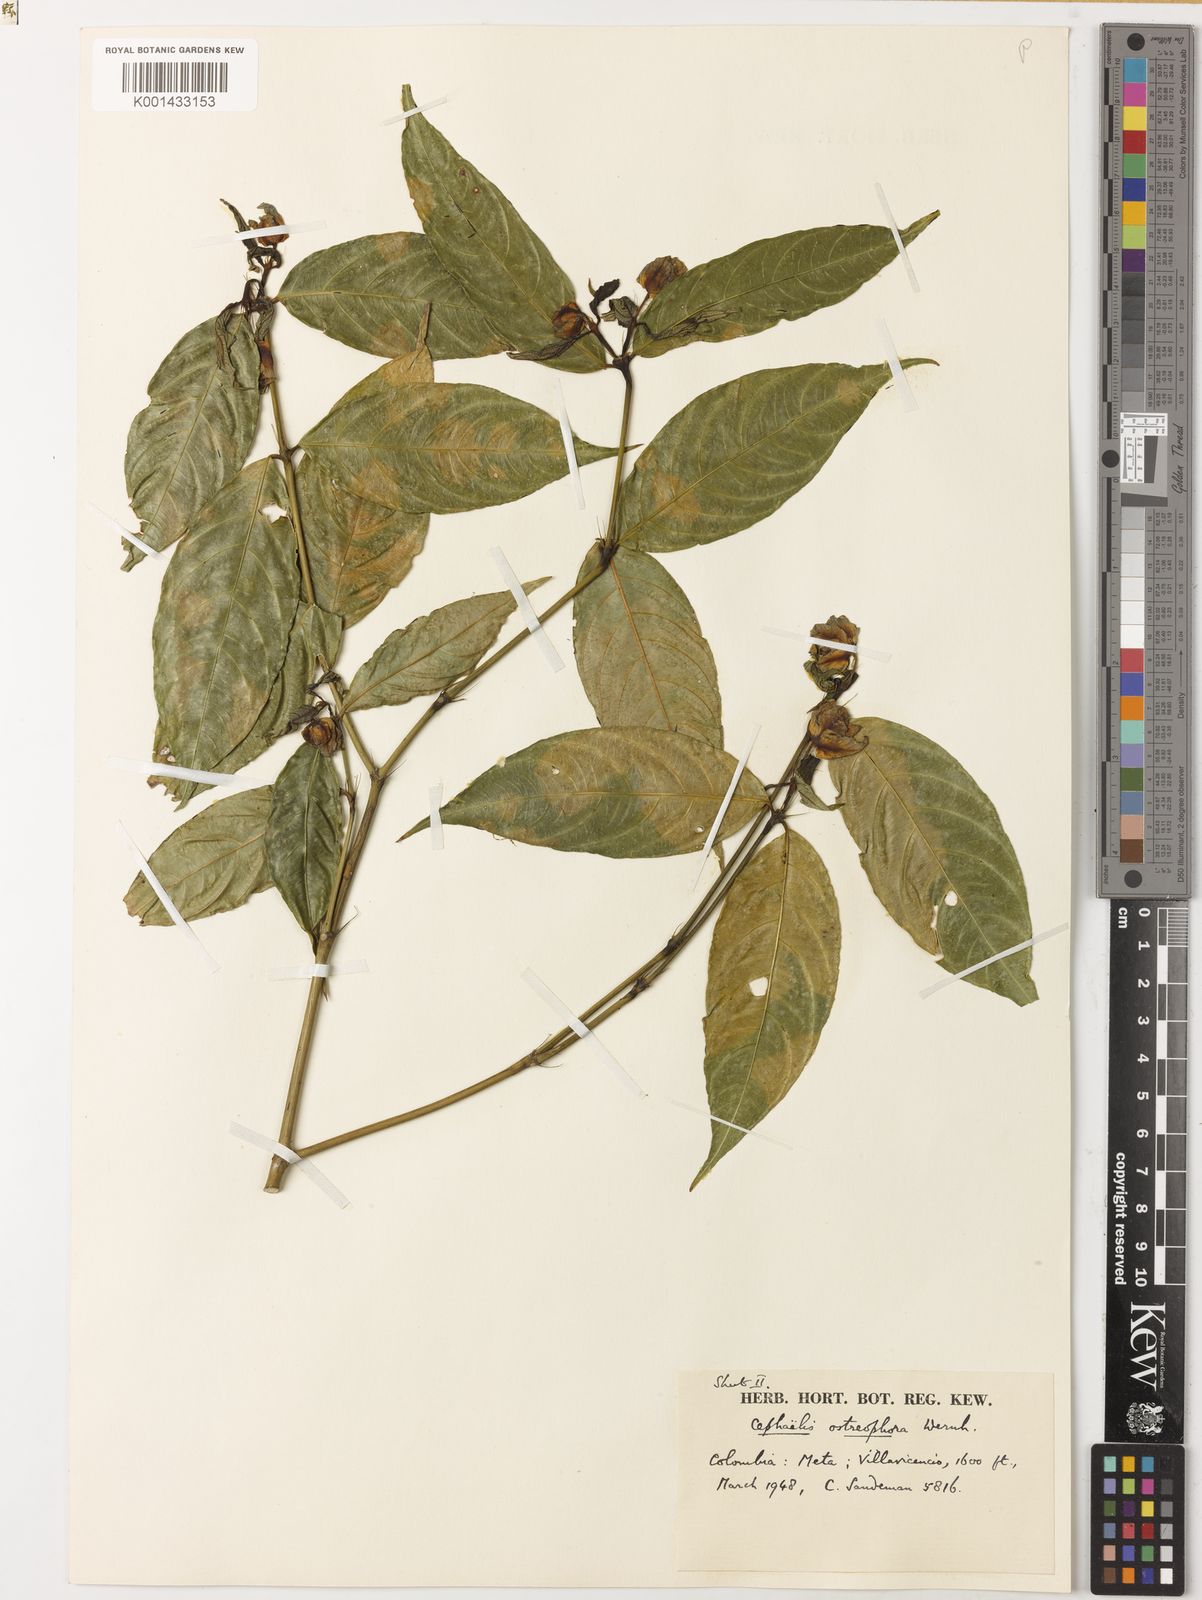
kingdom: Plantae
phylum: Tracheophyta
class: Magnoliopsida
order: Gentianales
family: Rubiaceae
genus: Palicourea
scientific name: Palicourea ostreophora
